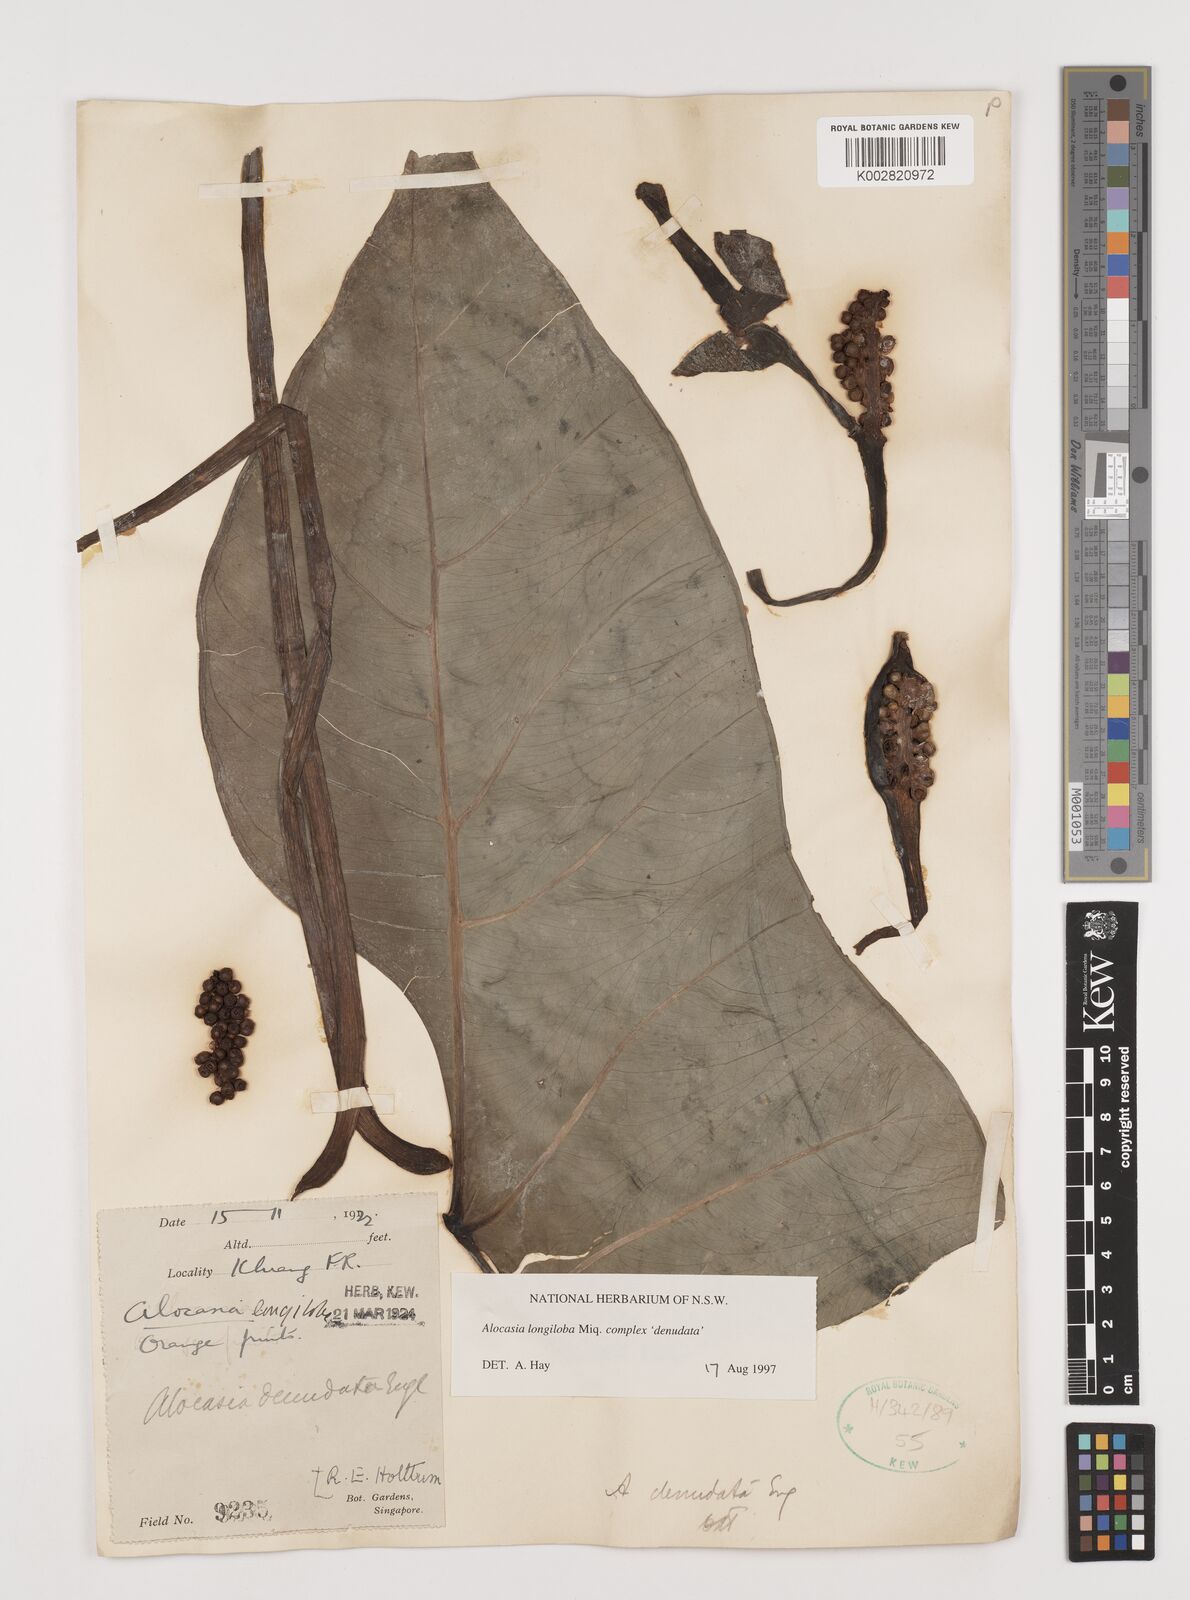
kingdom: Plantae
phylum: Tracheophyta
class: Liliopsida
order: Alismatales
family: Araceae
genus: Alocasia
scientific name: Alocasia longiloba
